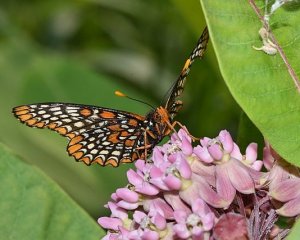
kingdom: Animalia
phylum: Arthropoda
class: Insecta
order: Lepidoptera
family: Nymphalidae
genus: Euphydryas
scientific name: Euphydryas phaeton
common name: Baltimore Checkerspot
